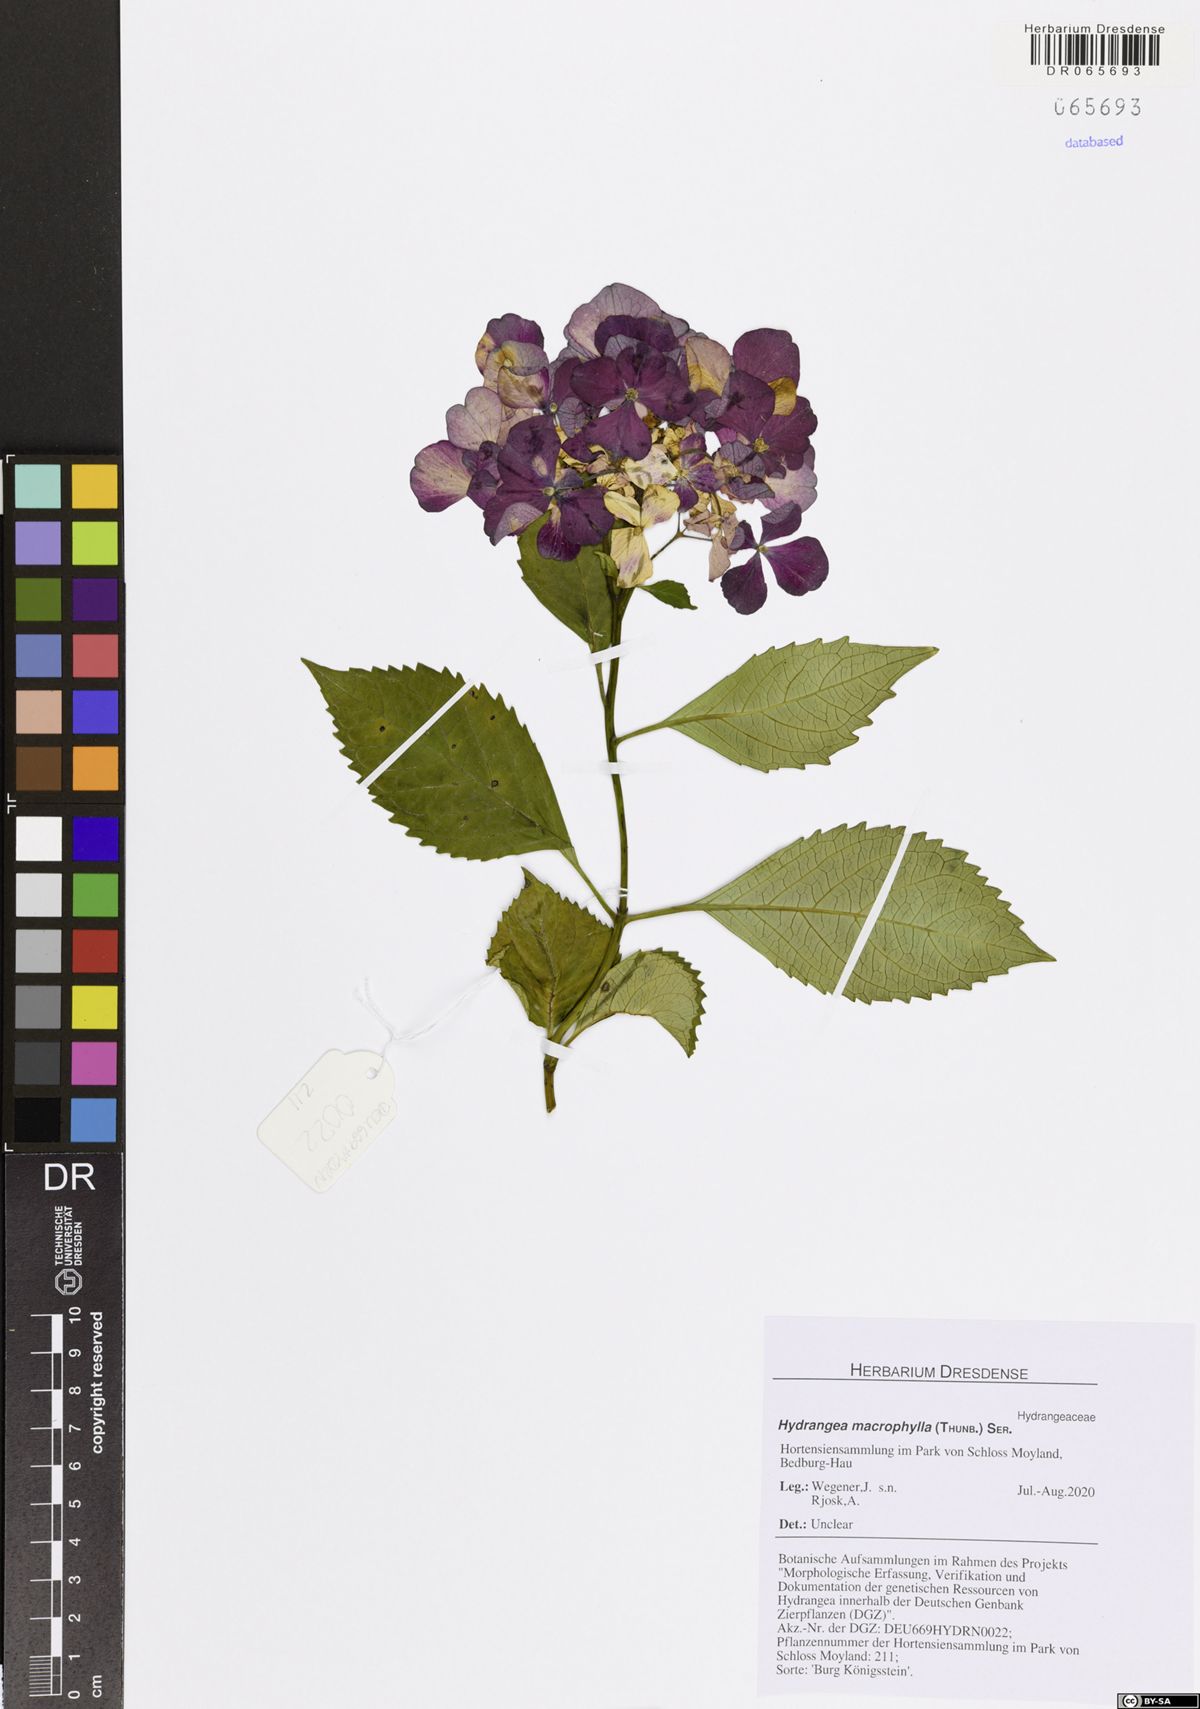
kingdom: Plantae
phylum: Tracheophyta
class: Magnoliopsida
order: Cornales
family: Hydrangeaceae
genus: Hydrangea
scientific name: Hydrangea macrophylla
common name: Hydrangea
